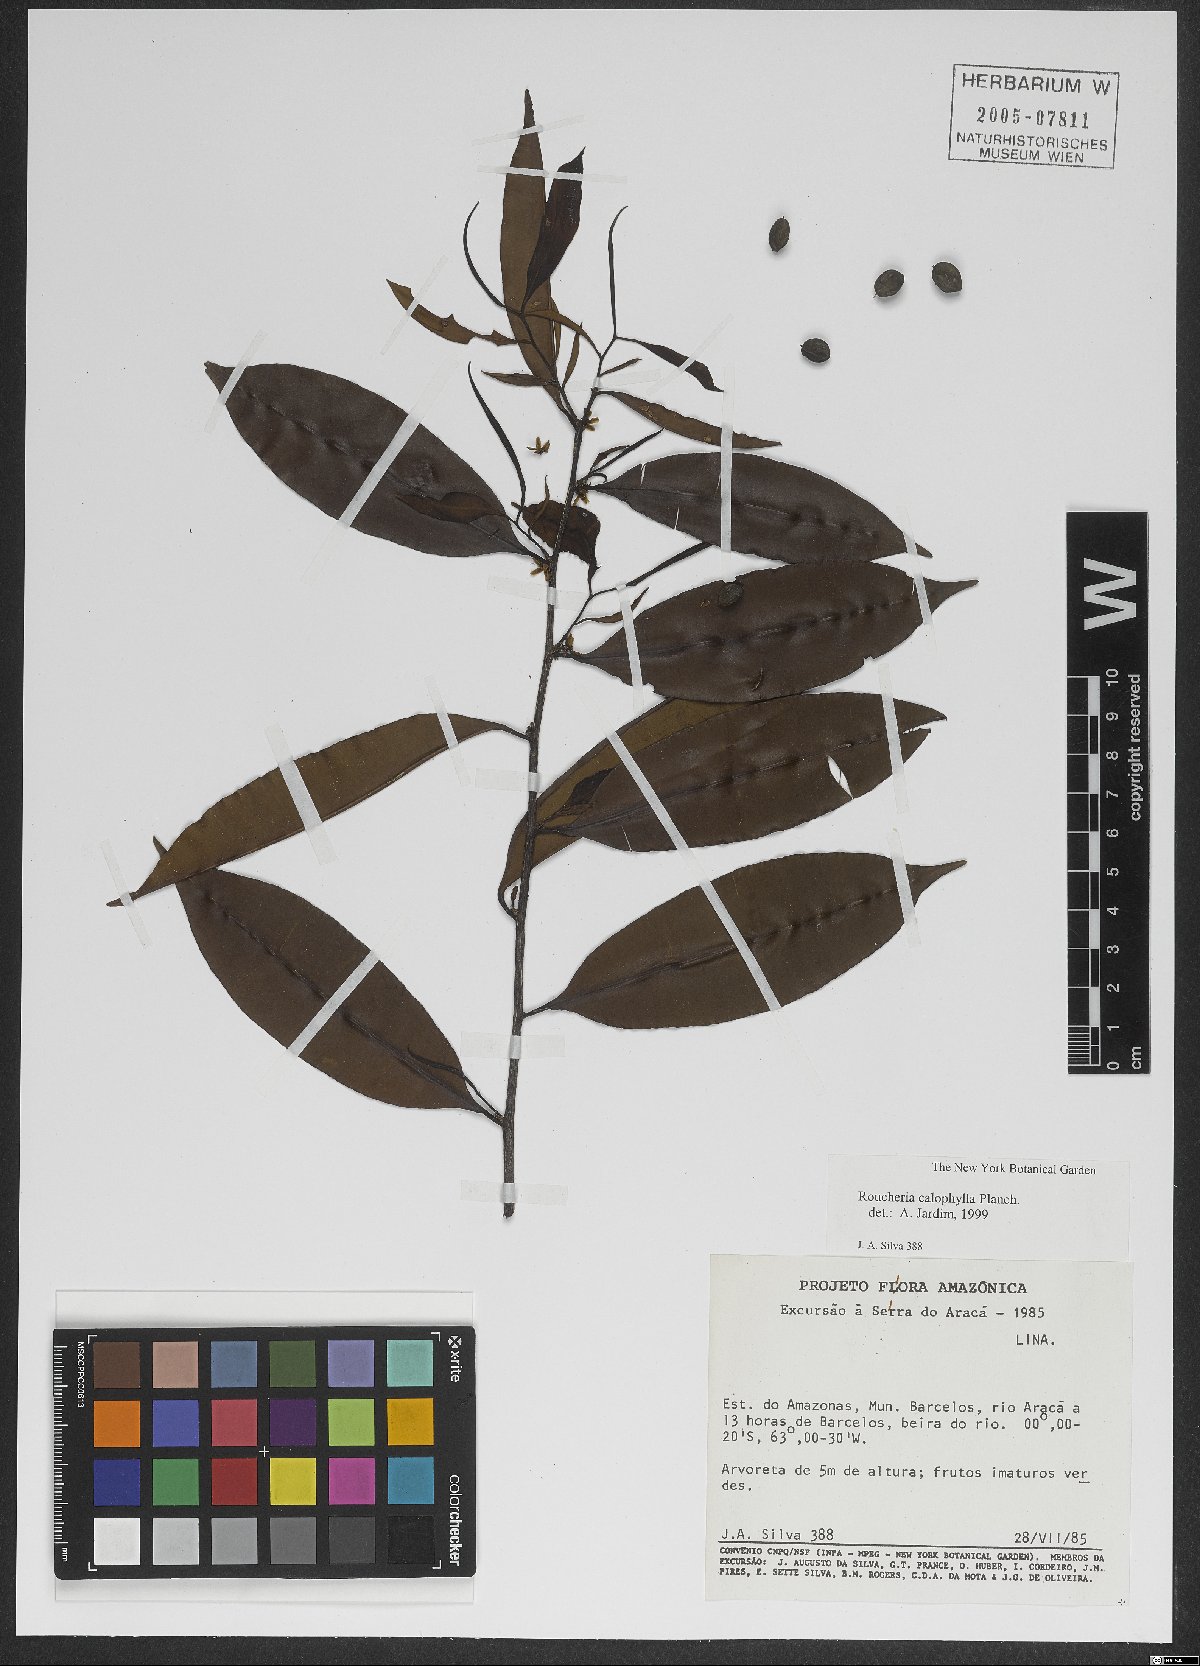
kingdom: Plantae
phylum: Tracheophyta
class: Magnoliopsida
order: Malpighiales
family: Linaceae
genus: Roucheria
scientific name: Roucheria calophylla
